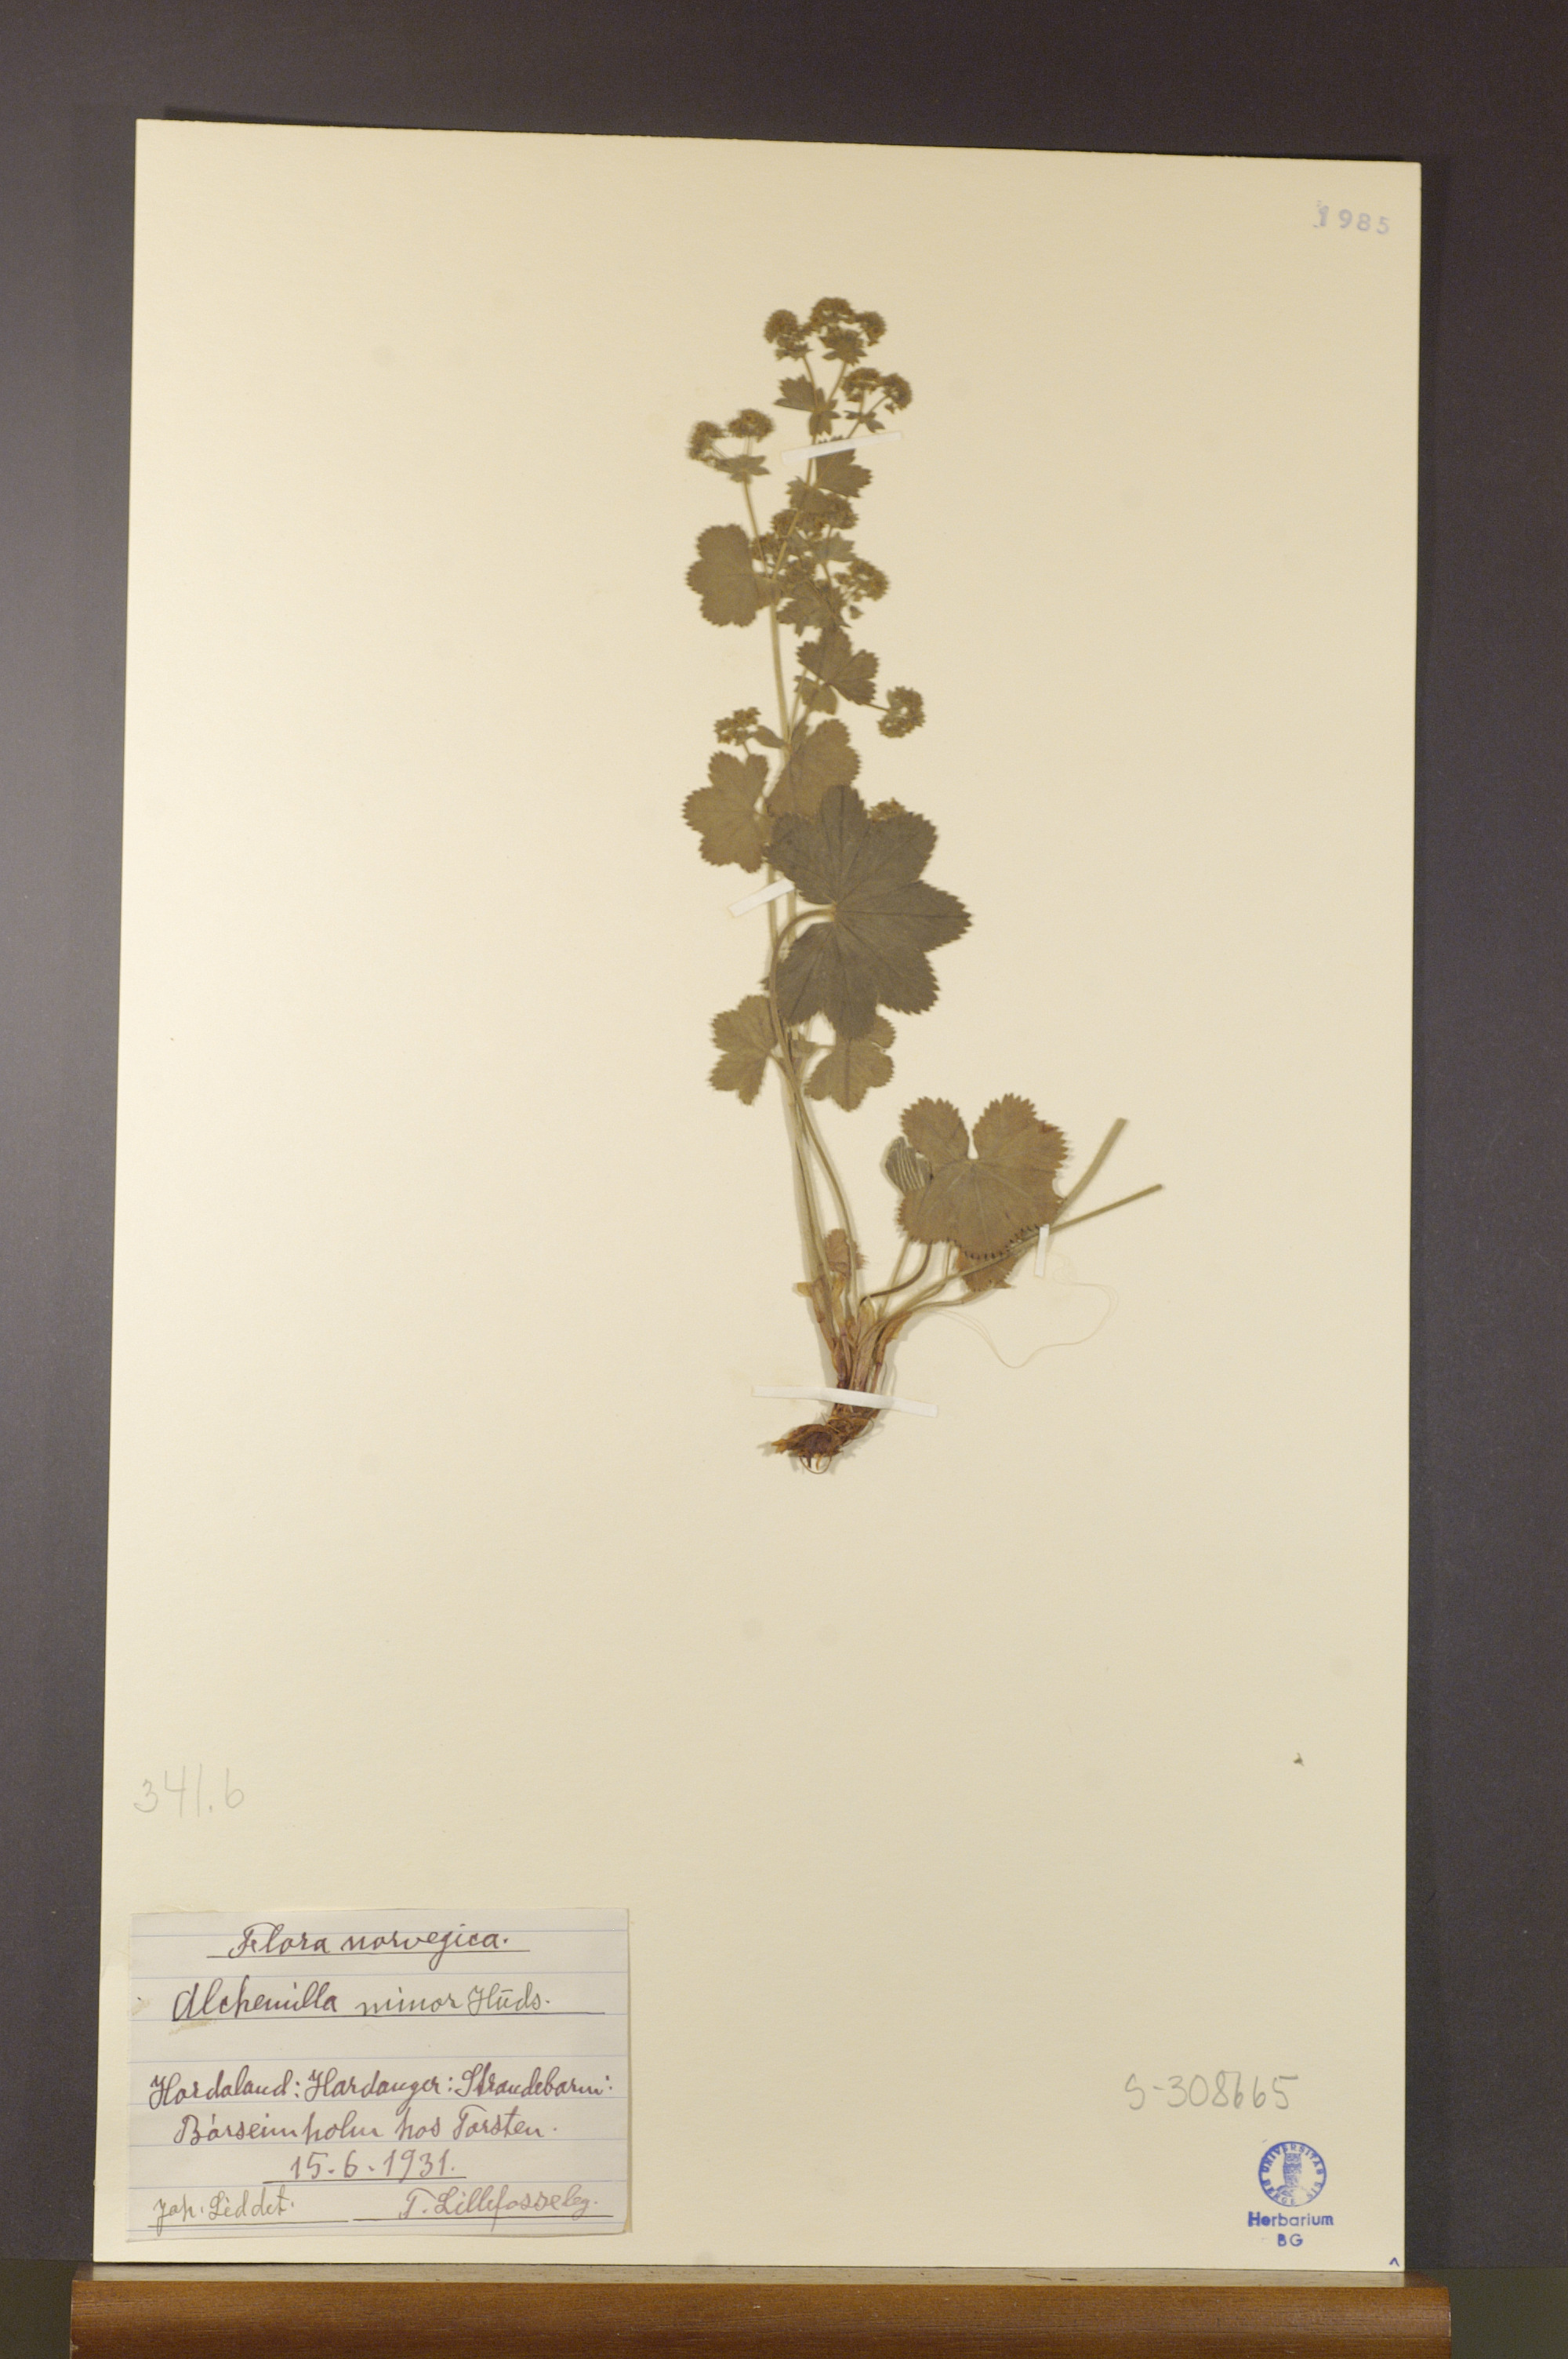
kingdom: Plantae
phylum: Tracheophyta
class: Magnoliopsida
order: Rosales
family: Rosaceae
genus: Alchemilla
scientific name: Alchemilla filicaulis
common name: Hairy lady's-mantle
